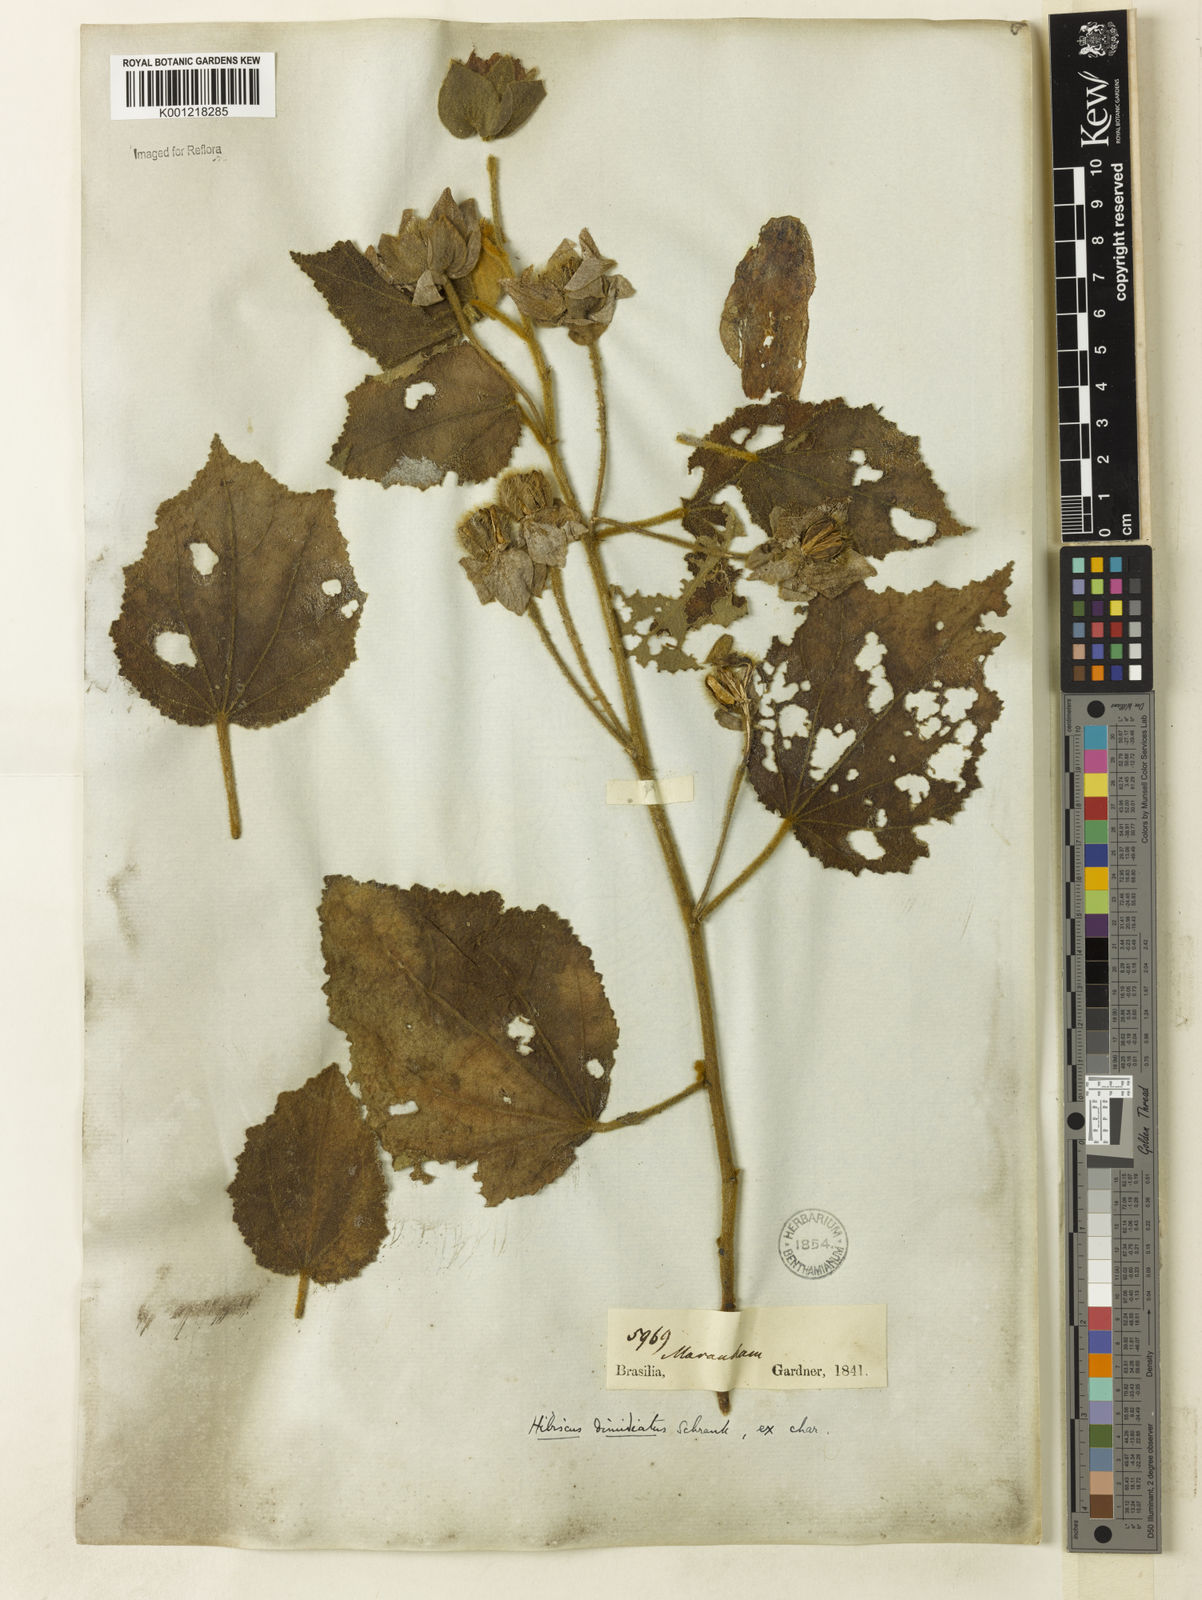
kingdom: Plantae
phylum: Tracheophyta
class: Magnoliopsida
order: Malvales
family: Malvaceae
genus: Hibiscus
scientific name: Hibiscus dimidiatus
